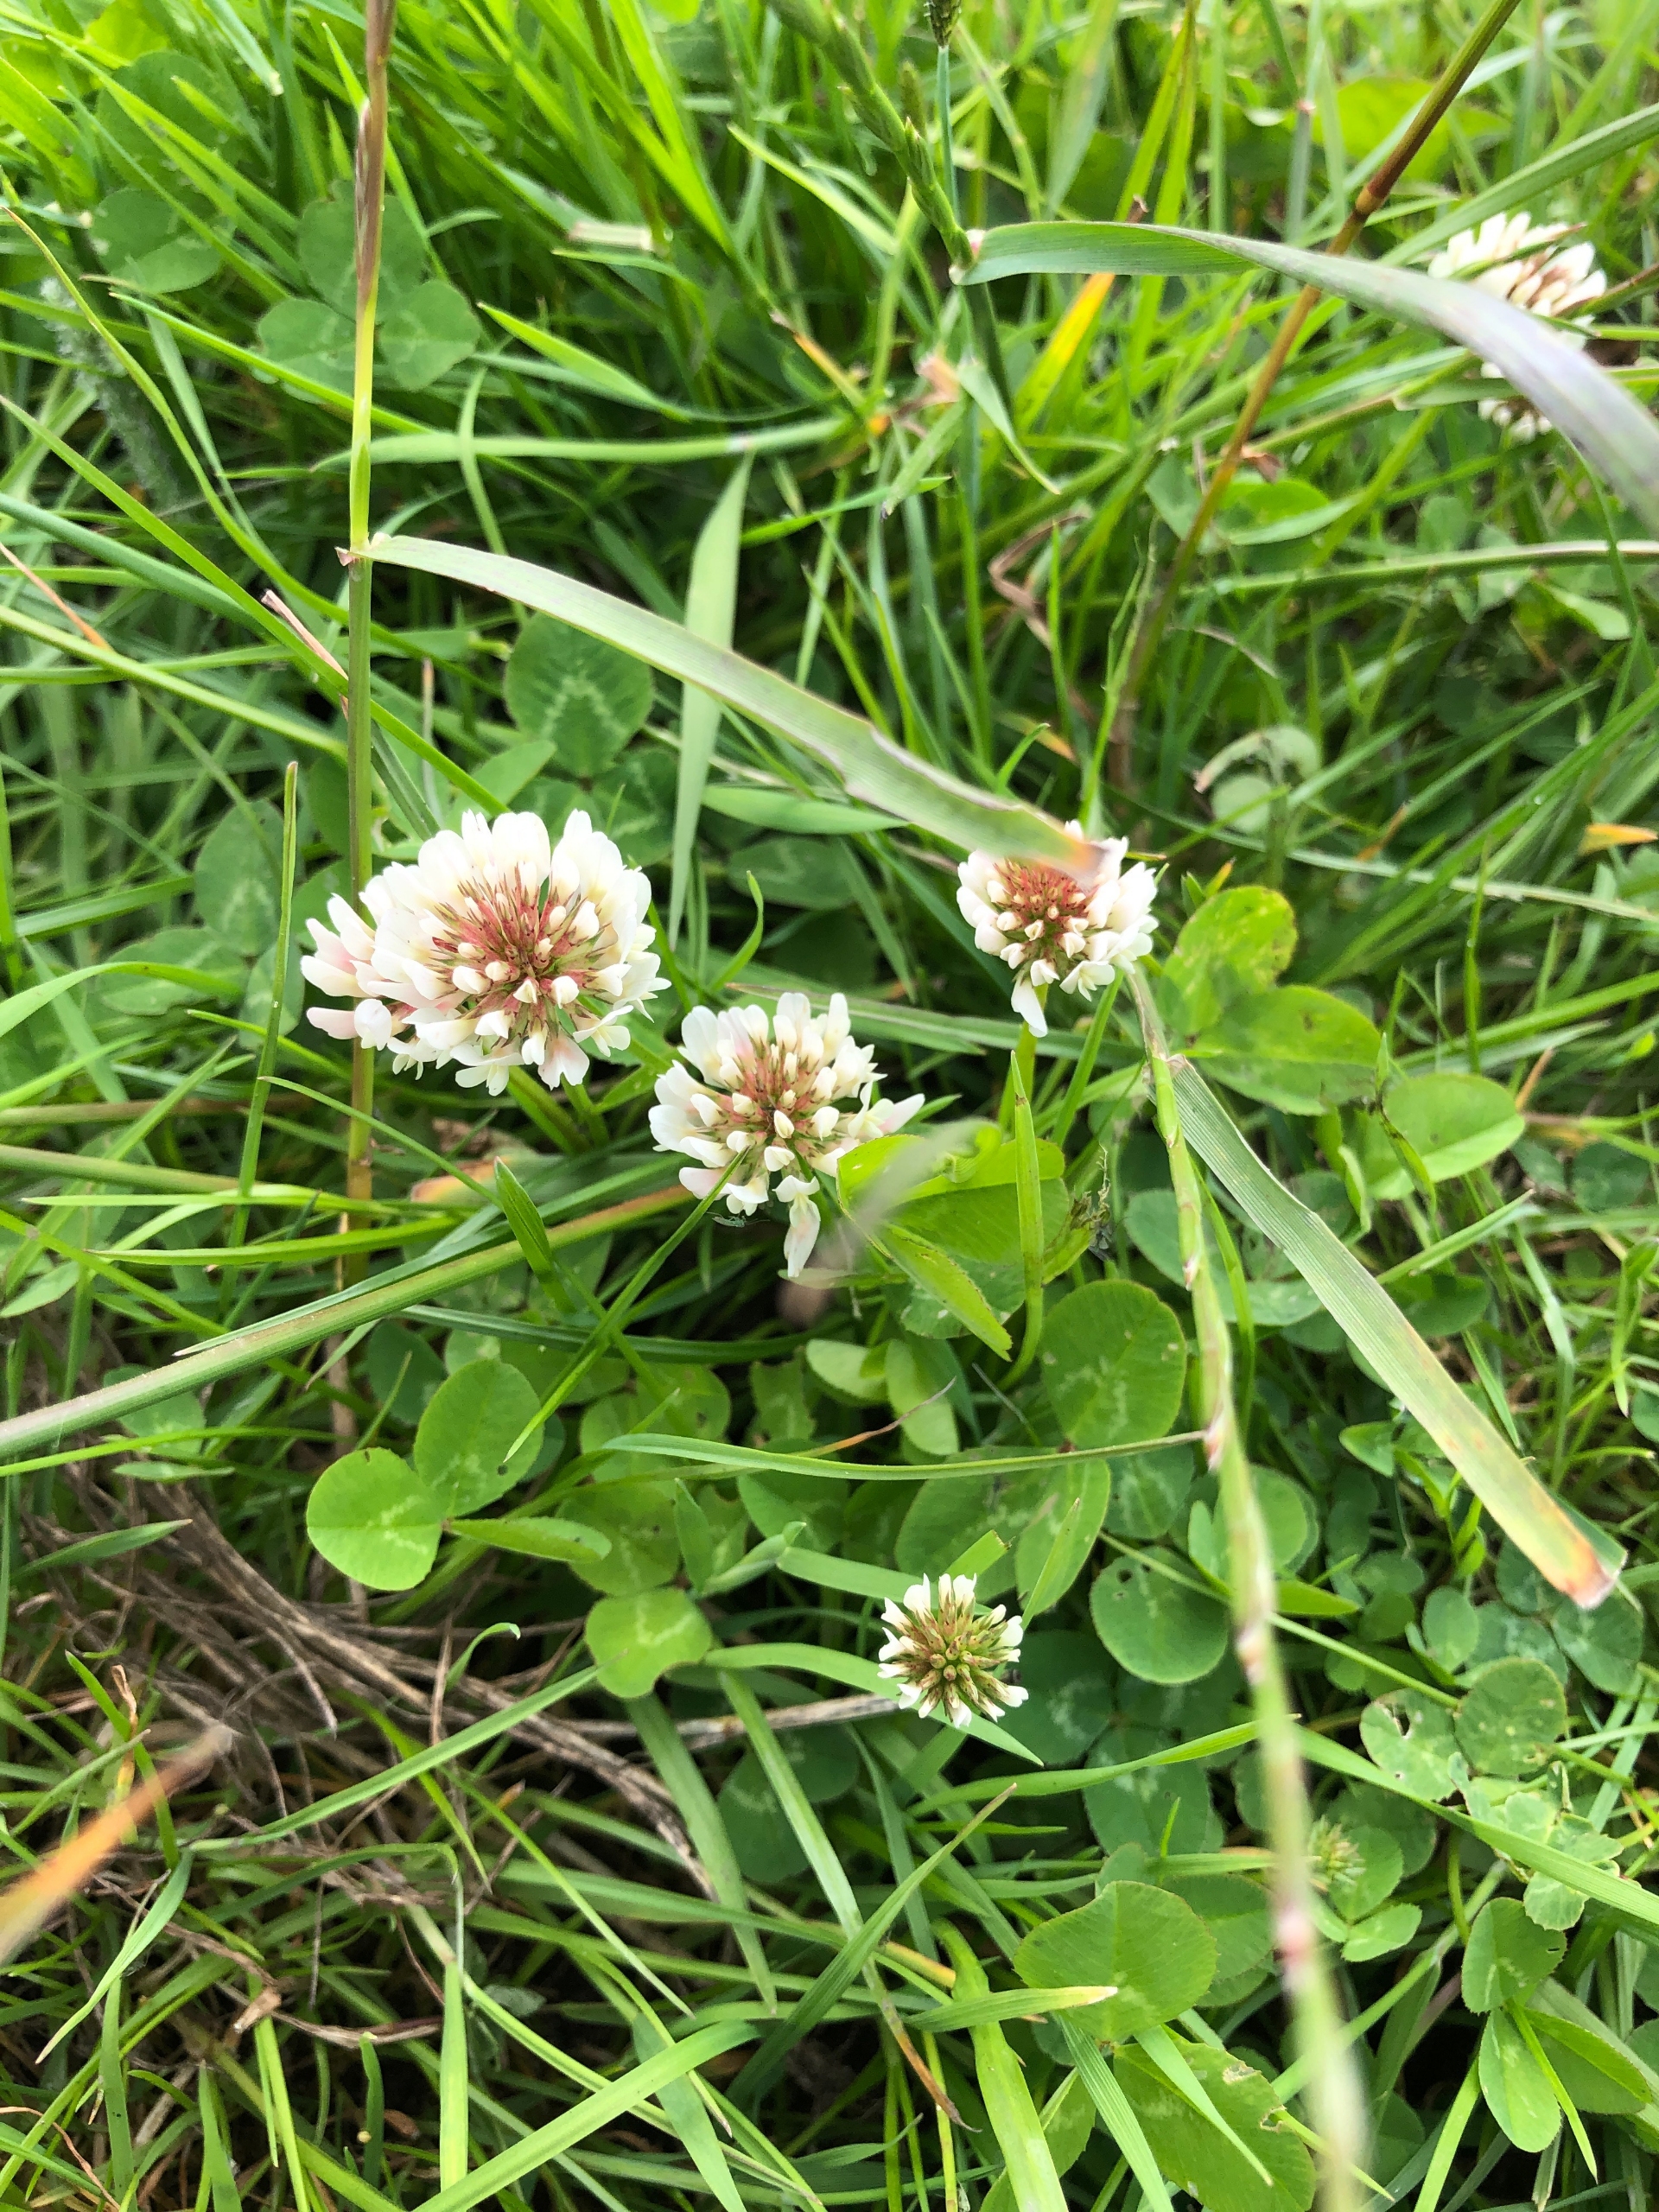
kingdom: Plantae
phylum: Tracheophyta
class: Magnoliopsida
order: Fabales
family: Fabaceae
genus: Trifolium
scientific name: Trifolium repens
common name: Hvid-kløver
